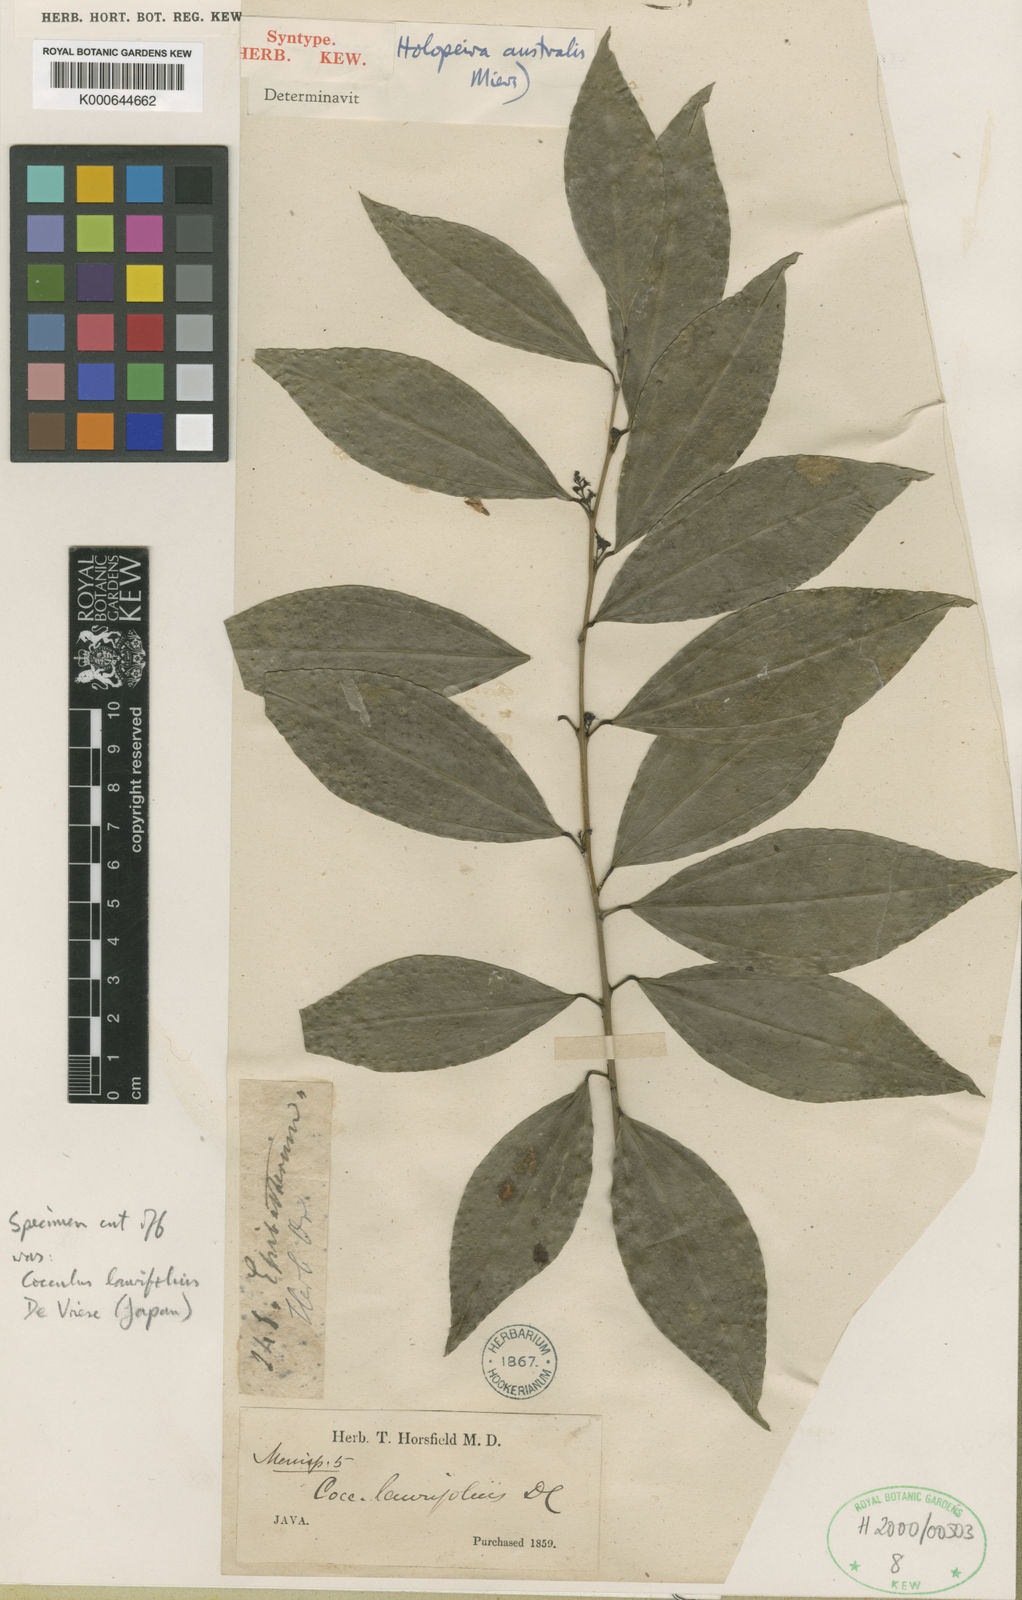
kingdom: Plantae
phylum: Tracheophyta
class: Magnoliopsida
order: Ranunculales
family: Menispermaceae
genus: Cocculus
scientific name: Cocculus laurifolius
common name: Laurel-leaf snailseed
